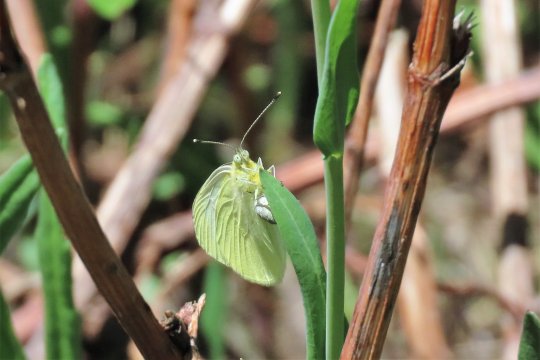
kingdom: Animalia
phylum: Arthropoda
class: Insecta
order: Lepidoptera
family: Pieridae
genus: Pieris
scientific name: Pieris marginalis
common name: Margined White
